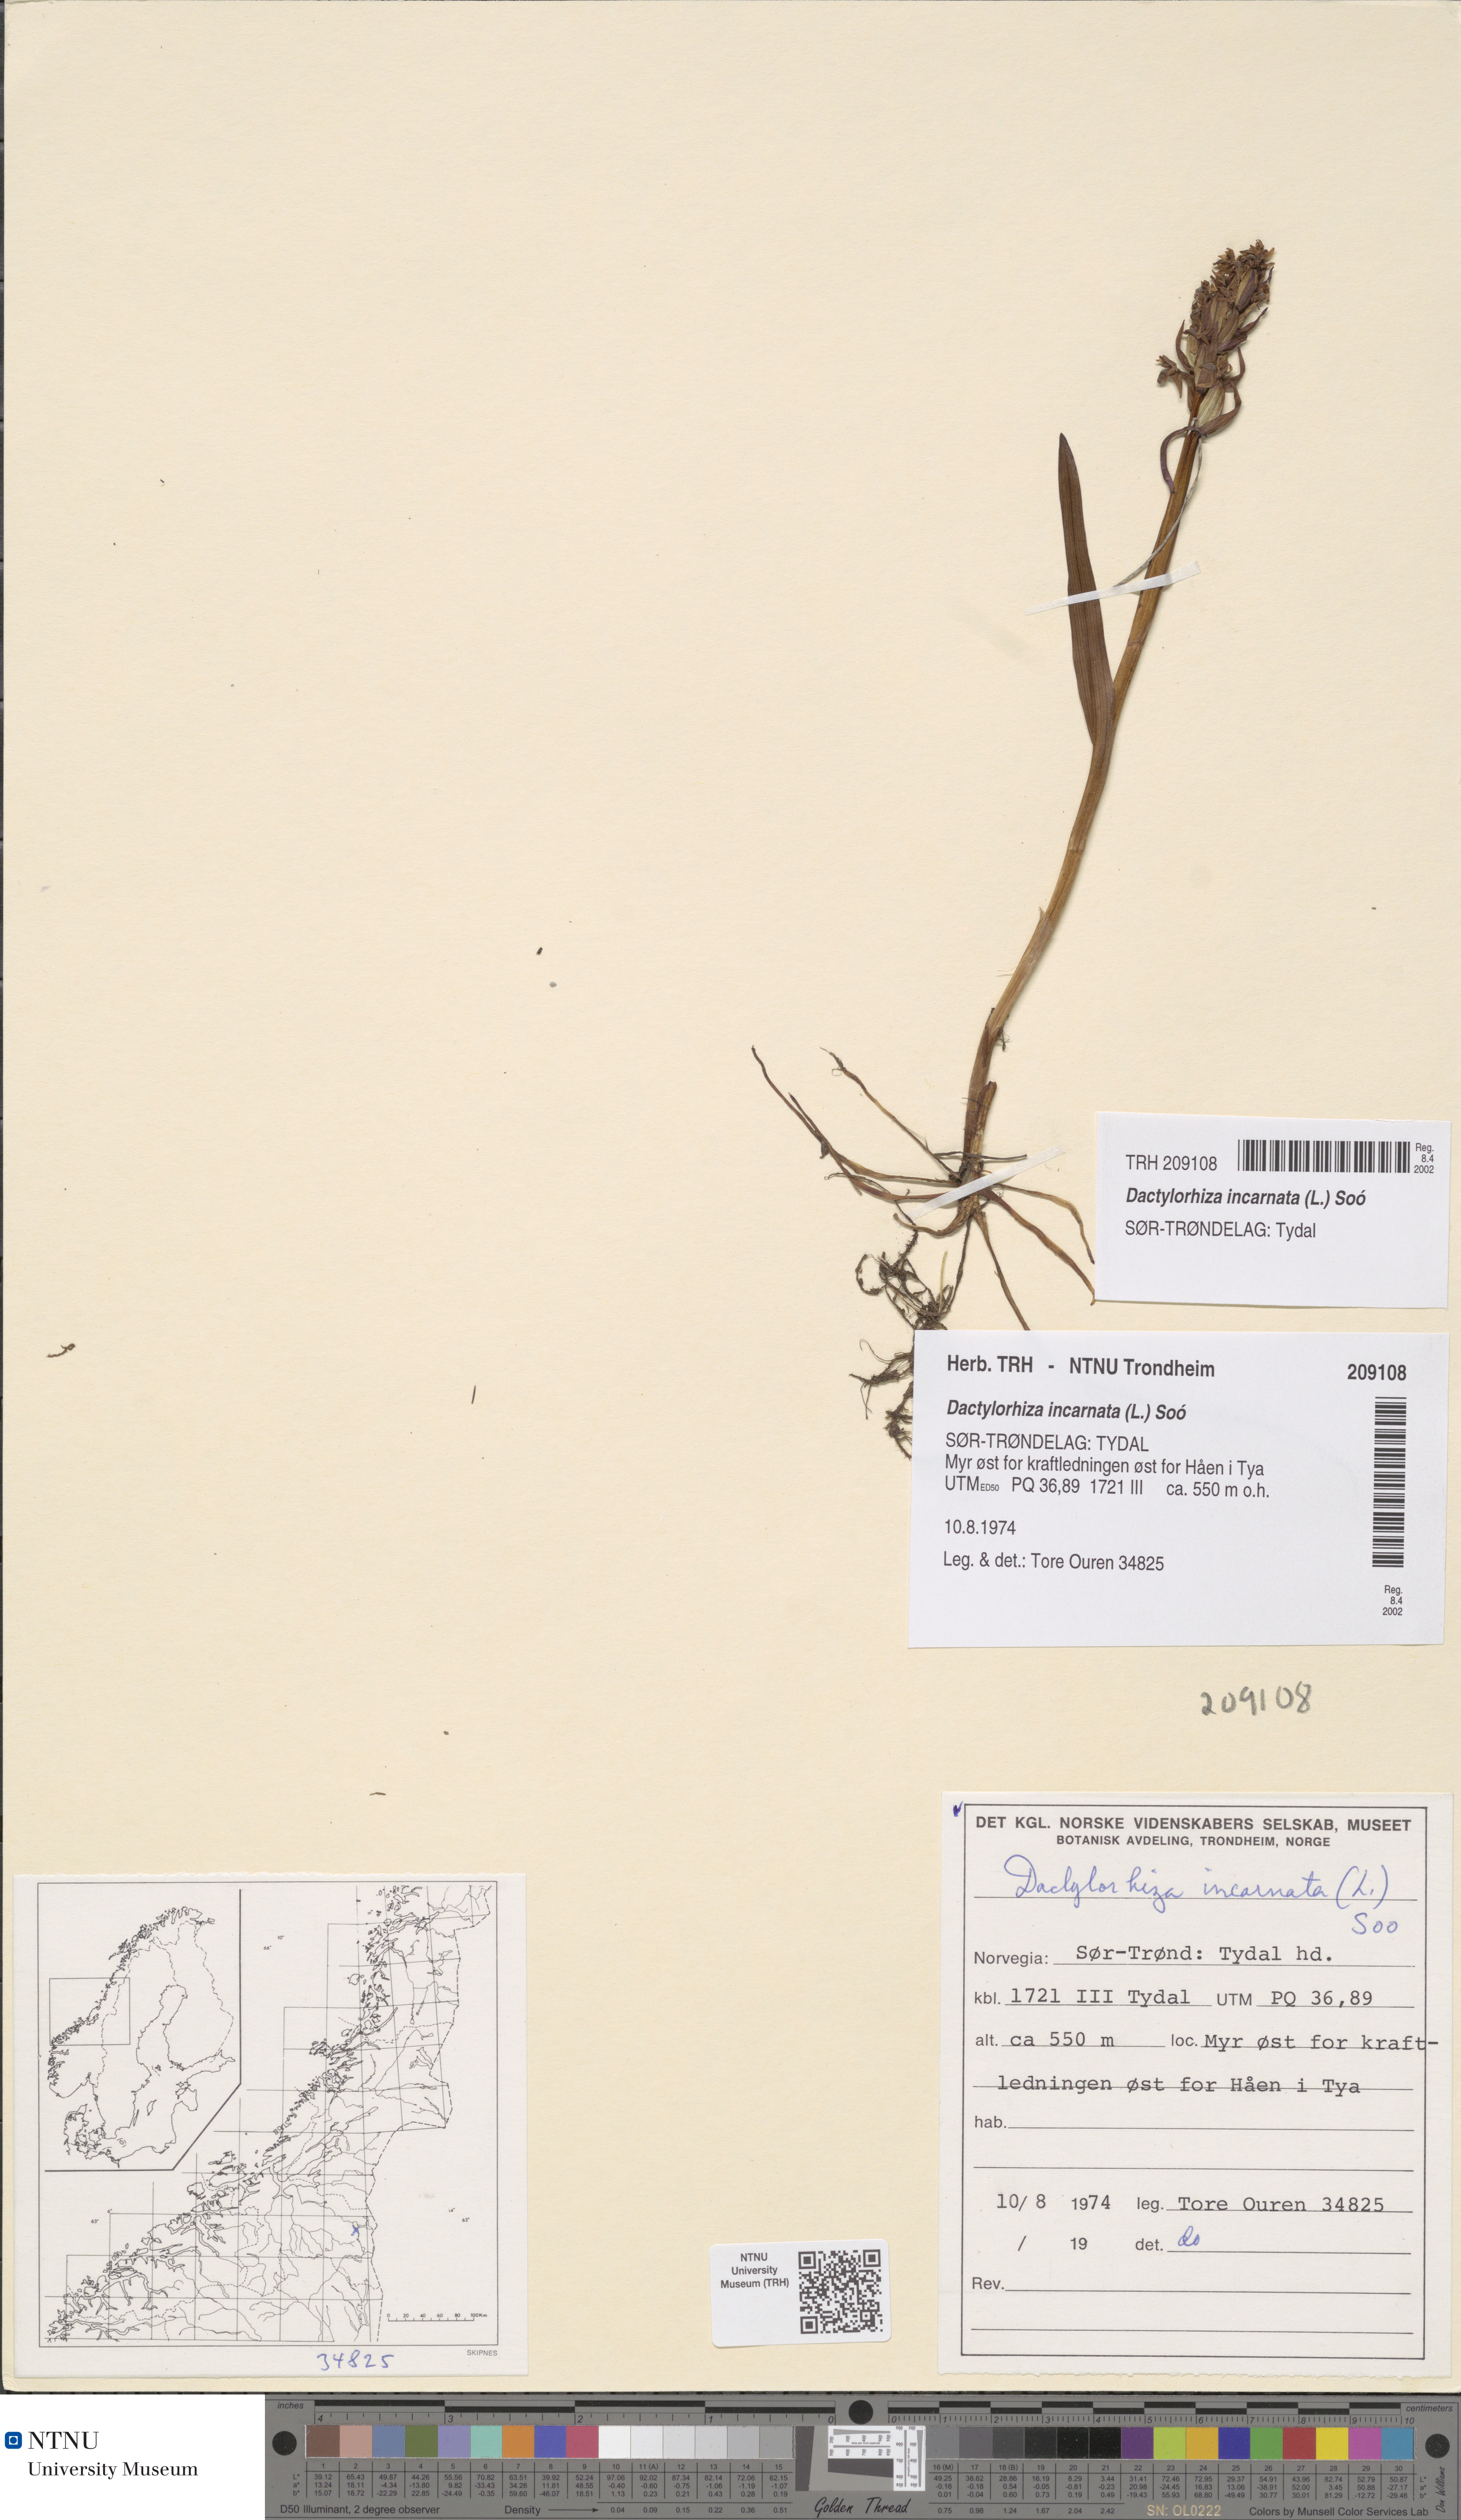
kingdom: Plantae
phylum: Tracheophyta
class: Liliopsida
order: Asparagales
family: Orchidaceae
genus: Dactylorhiza
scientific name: Dactylorhiza incarnata
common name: Early marsh-orchid
